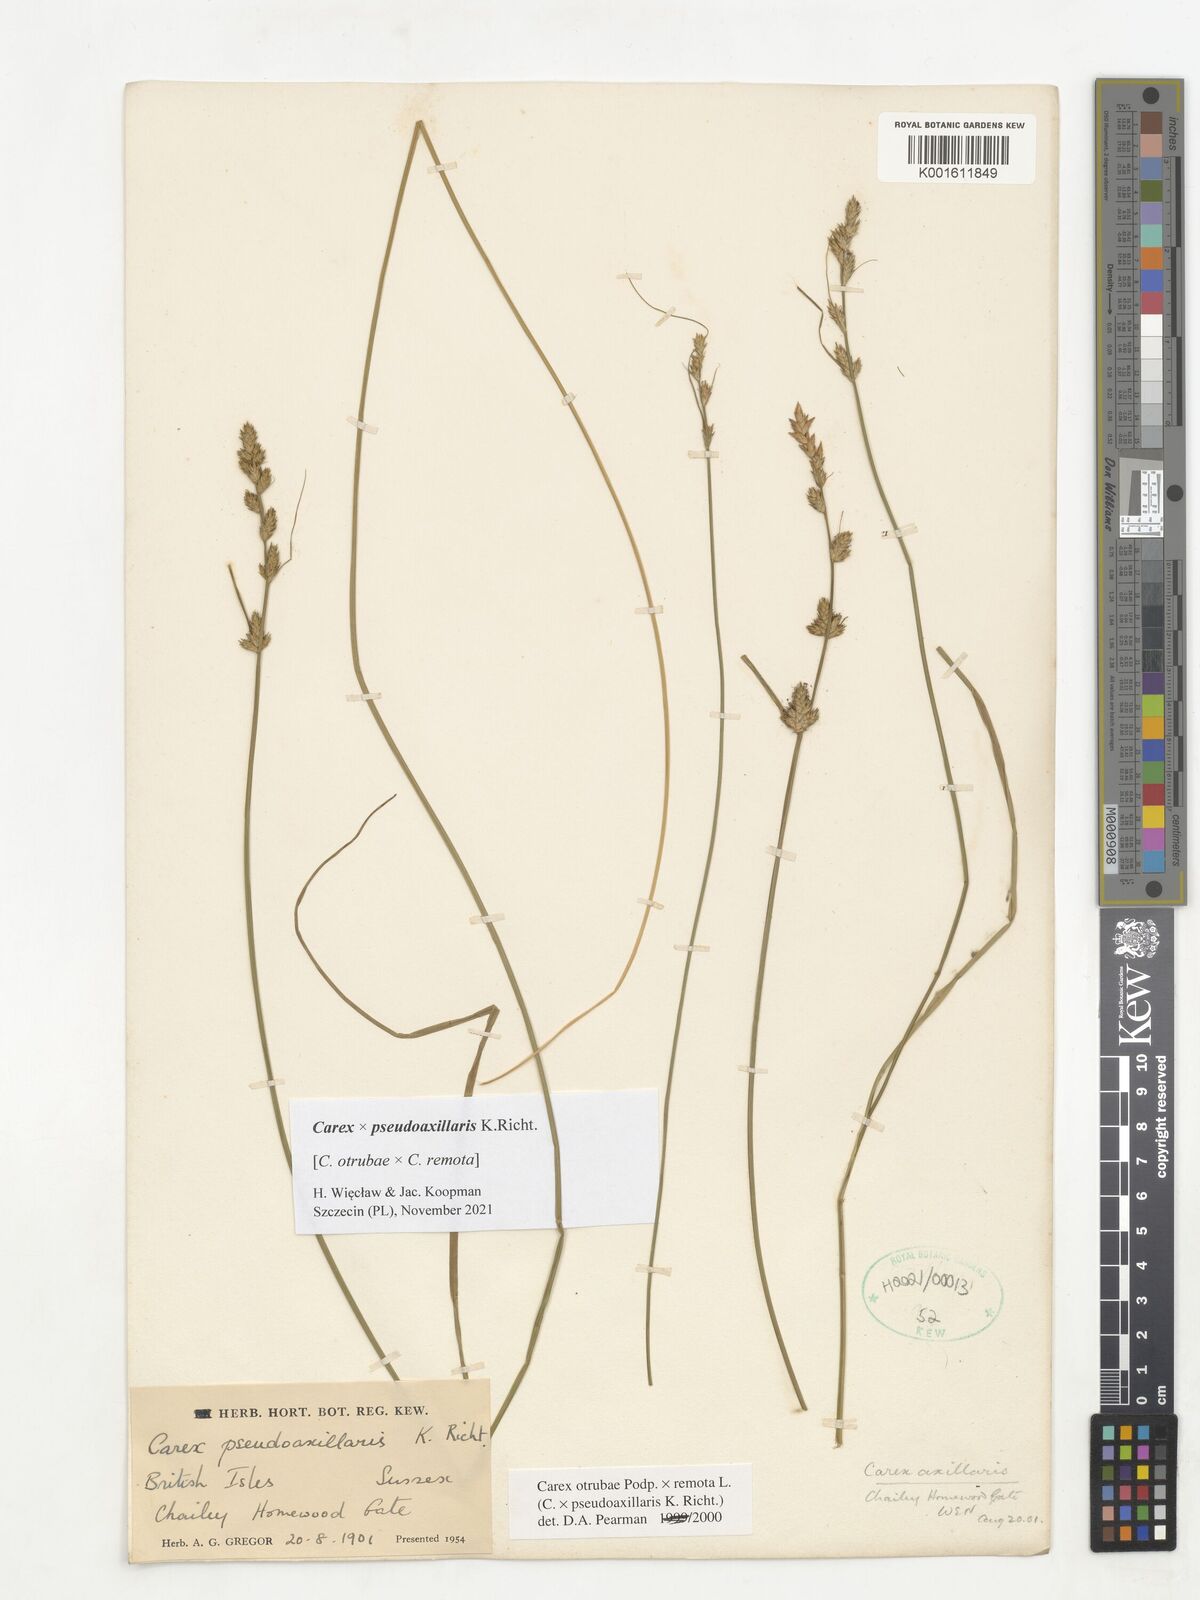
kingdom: Plantae
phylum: Tracheophyta
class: Liliopsida
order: Poales
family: Cyperaceae
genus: Carex
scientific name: Carex pseudoaxillaris
